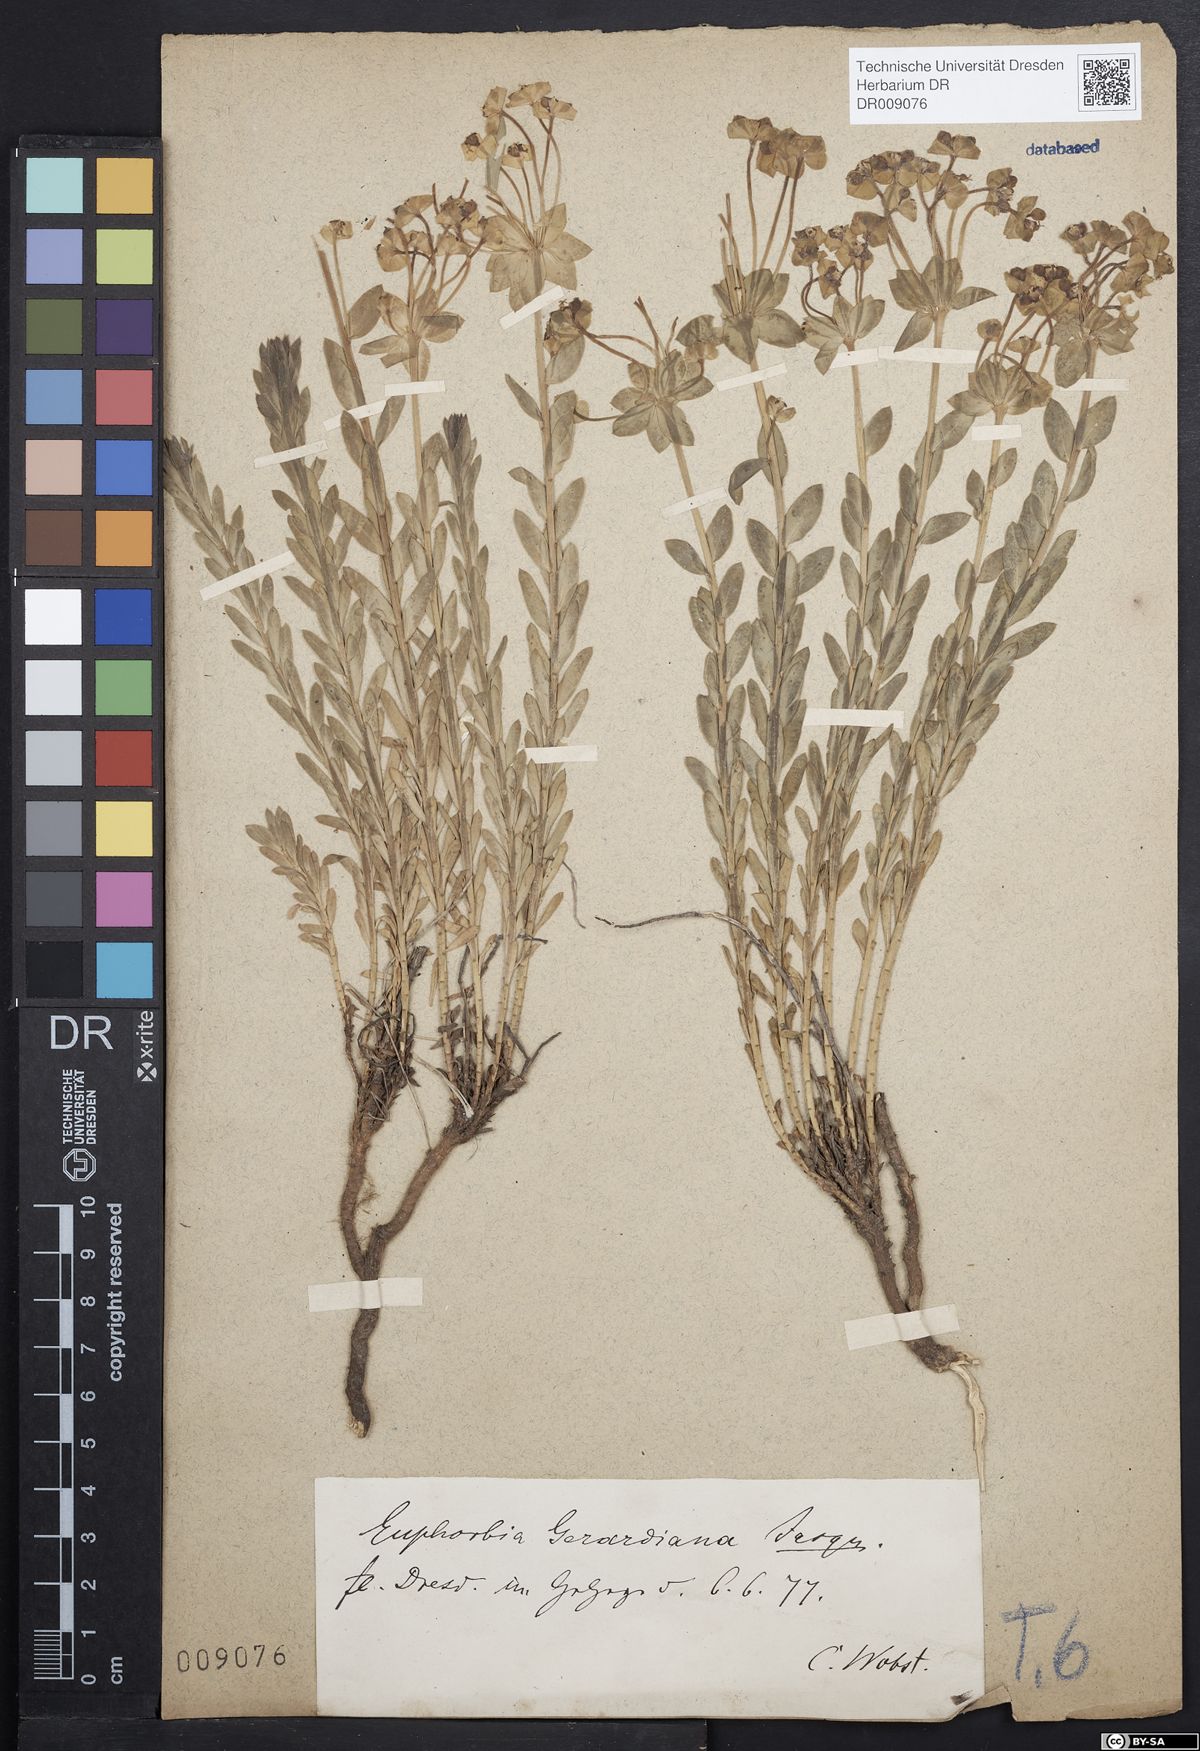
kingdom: Plantae
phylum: Tracheophyta
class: Magnoliopsida
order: Malpighiales
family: Euphorbiaceae
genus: Euphorbia
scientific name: Euphorbia seguieriana
